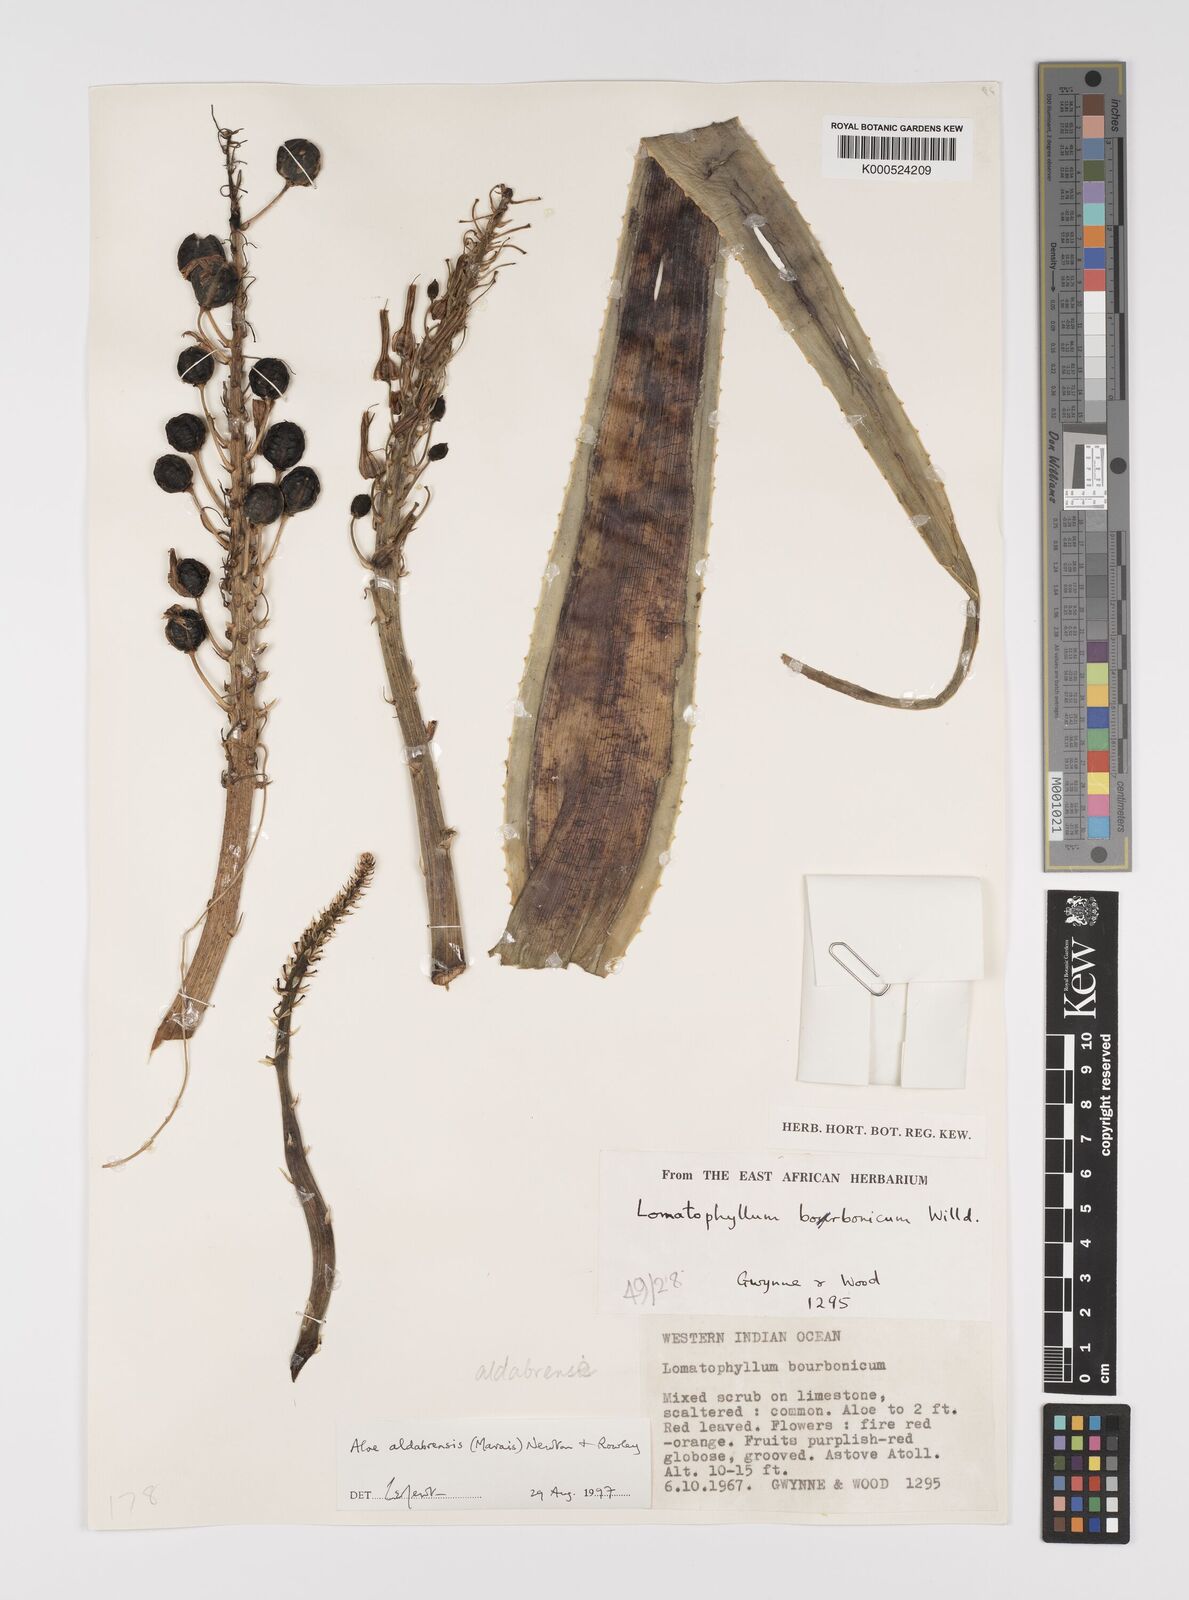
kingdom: Plantae
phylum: Tracheophyta
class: Liliopsida
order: Asparagales
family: Asphodelaceae
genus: Aloe
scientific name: Aloe aldabrensis
